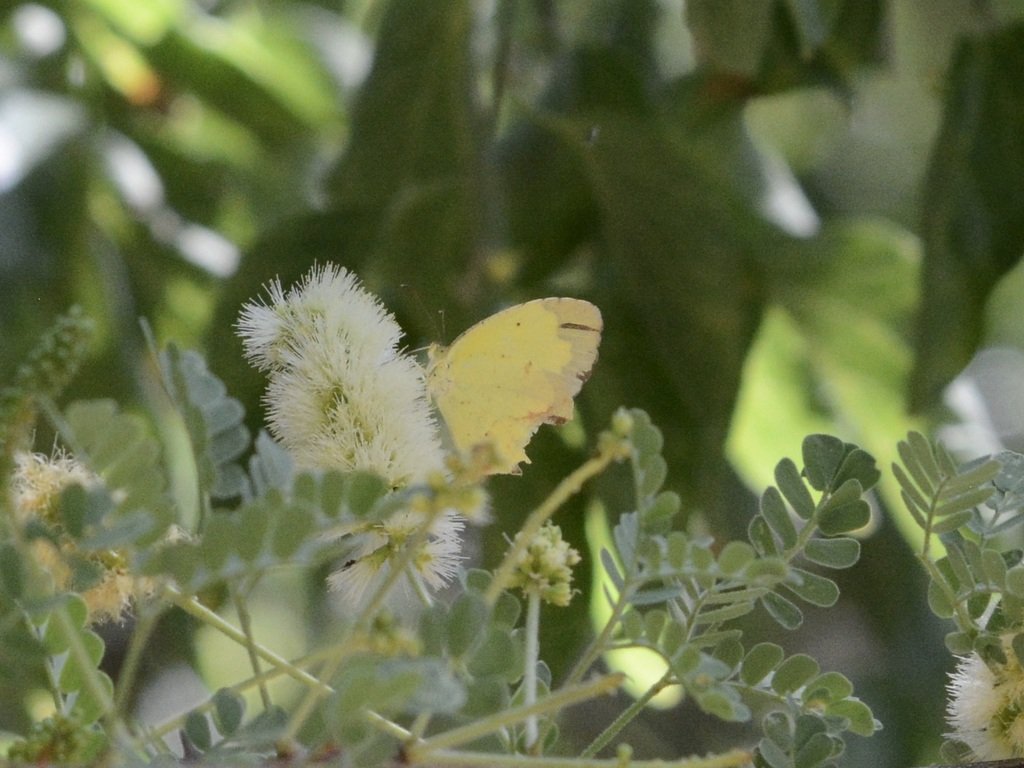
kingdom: Animalia
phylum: Arthropoda
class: Insecta
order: Lepidoptera
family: Pieridae
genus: Abaeis
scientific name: Abaeis nicippe
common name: Sleepy Orange
